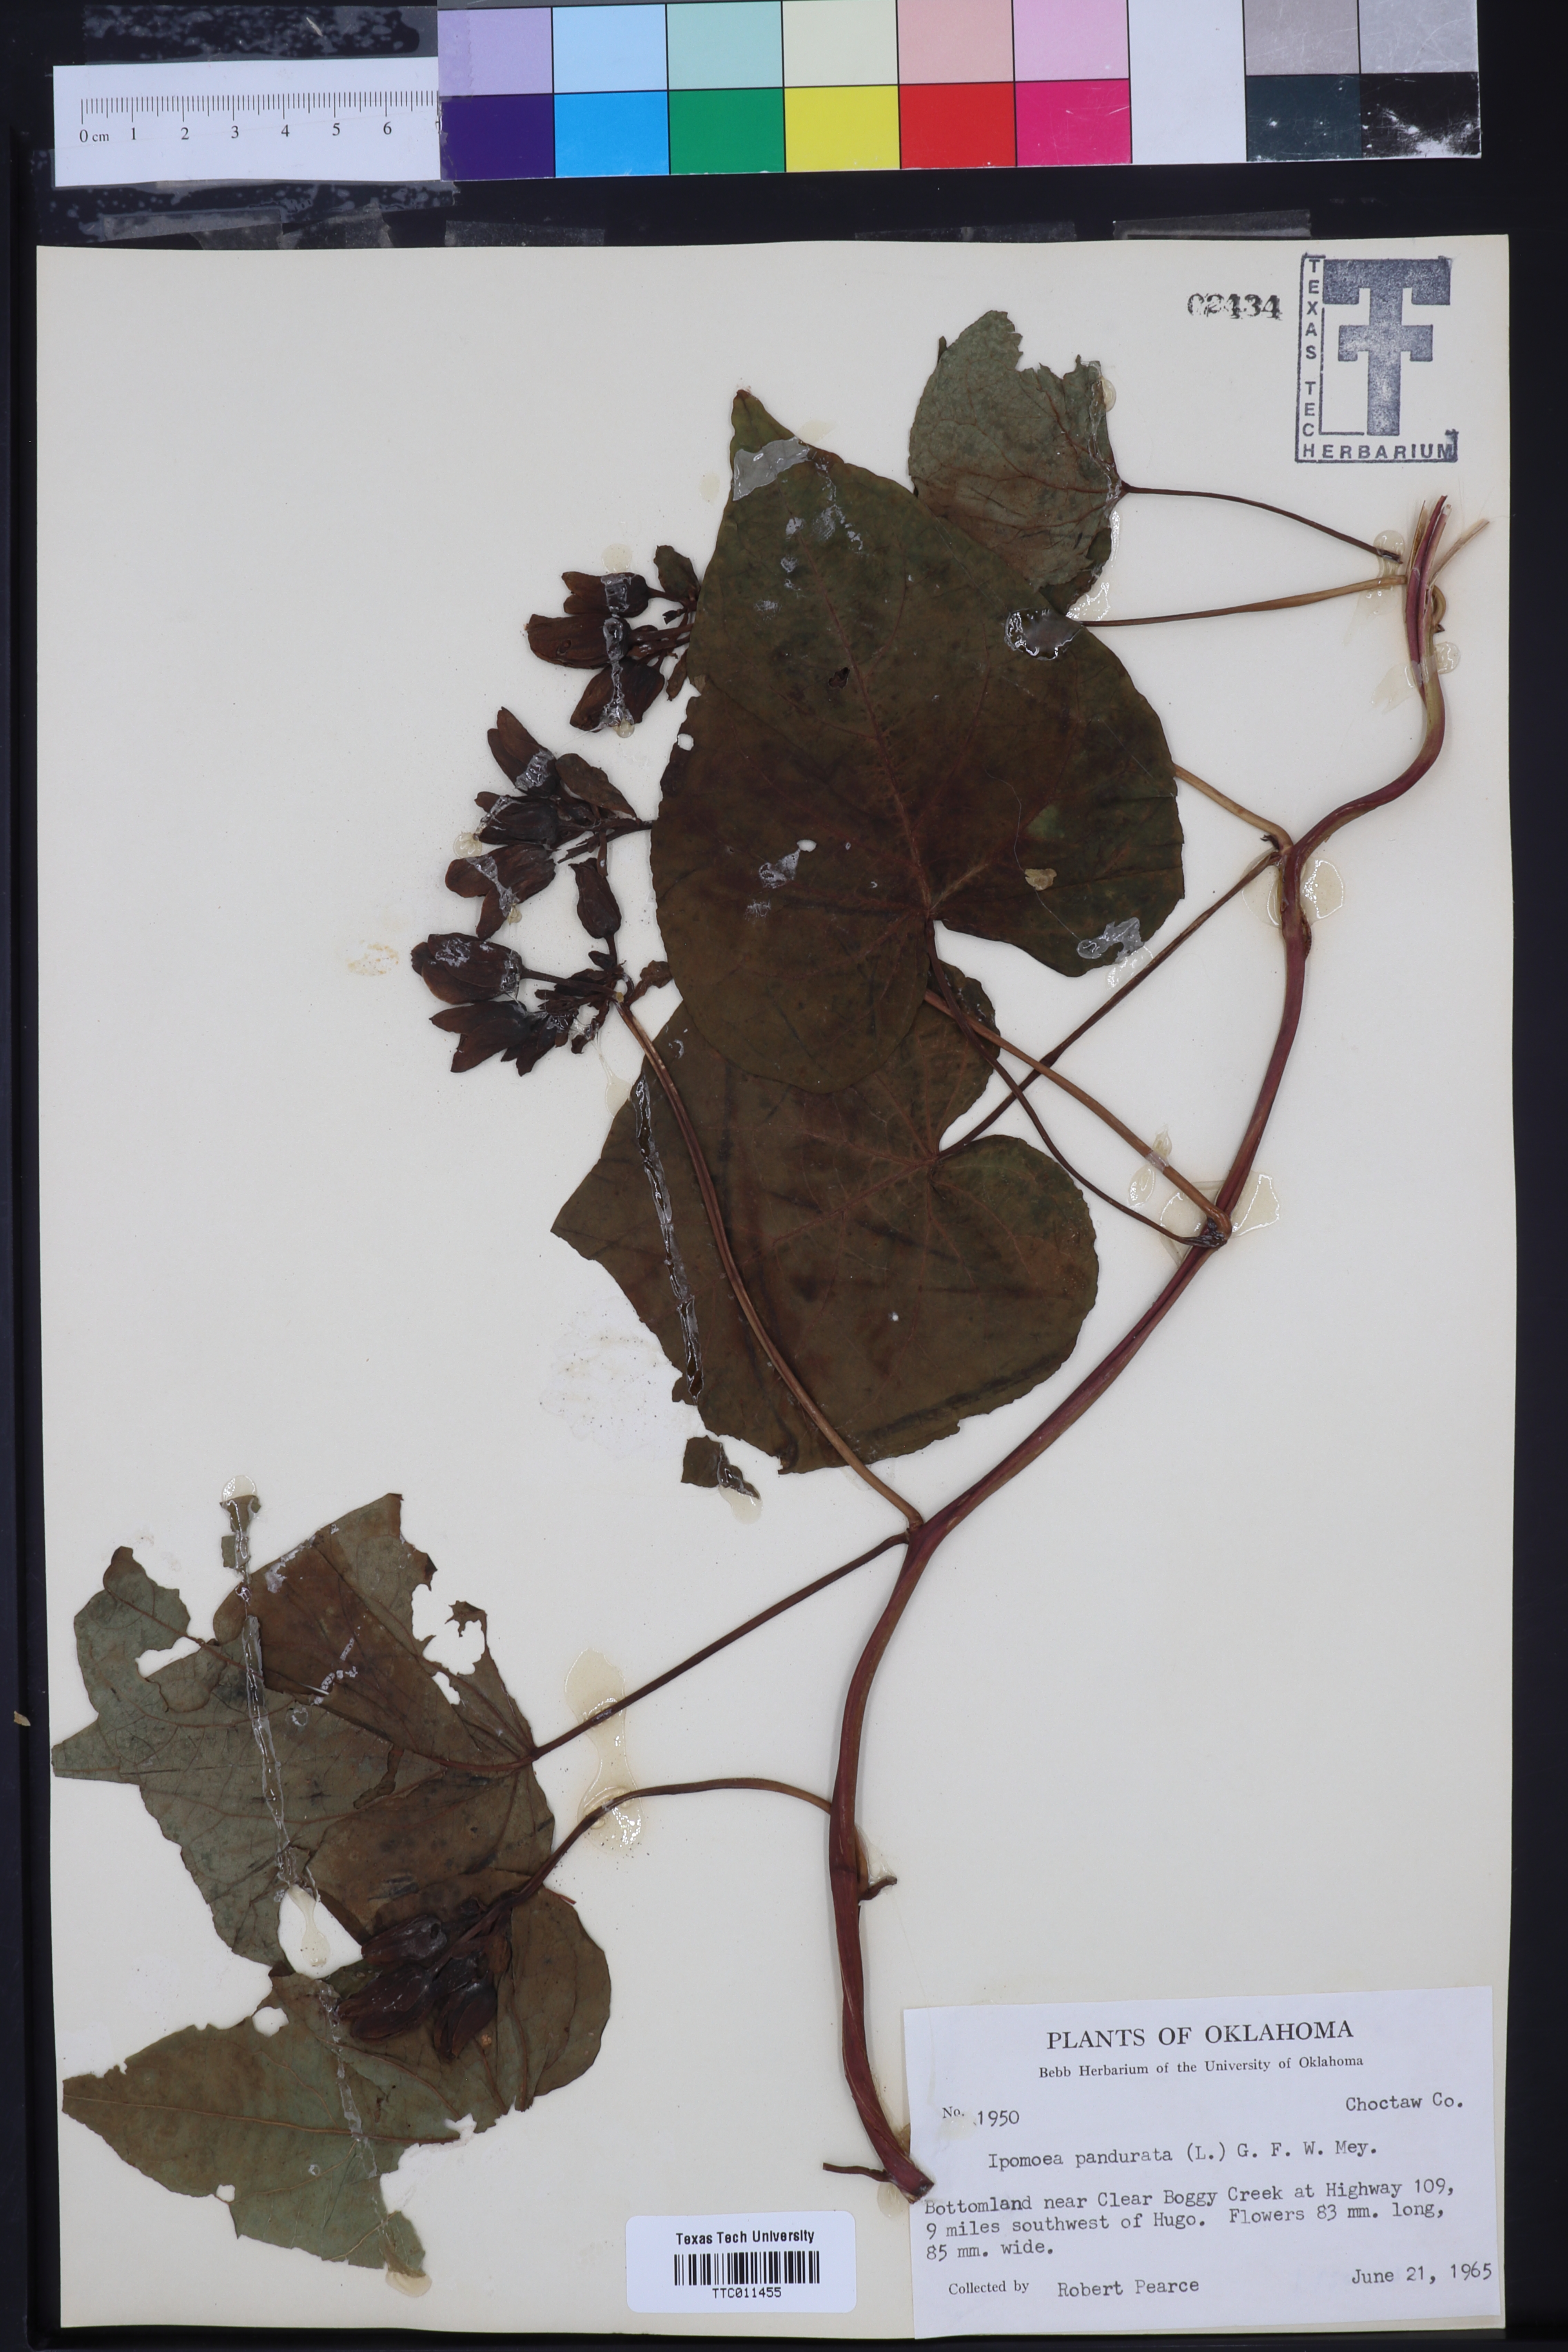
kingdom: Plantae
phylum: Tracheophyta
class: Magnoliopsida
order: Solanales
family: Convolvulaceae
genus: Ipomoea
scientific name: Ipomoea pandurata
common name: Man-of-the-earth
